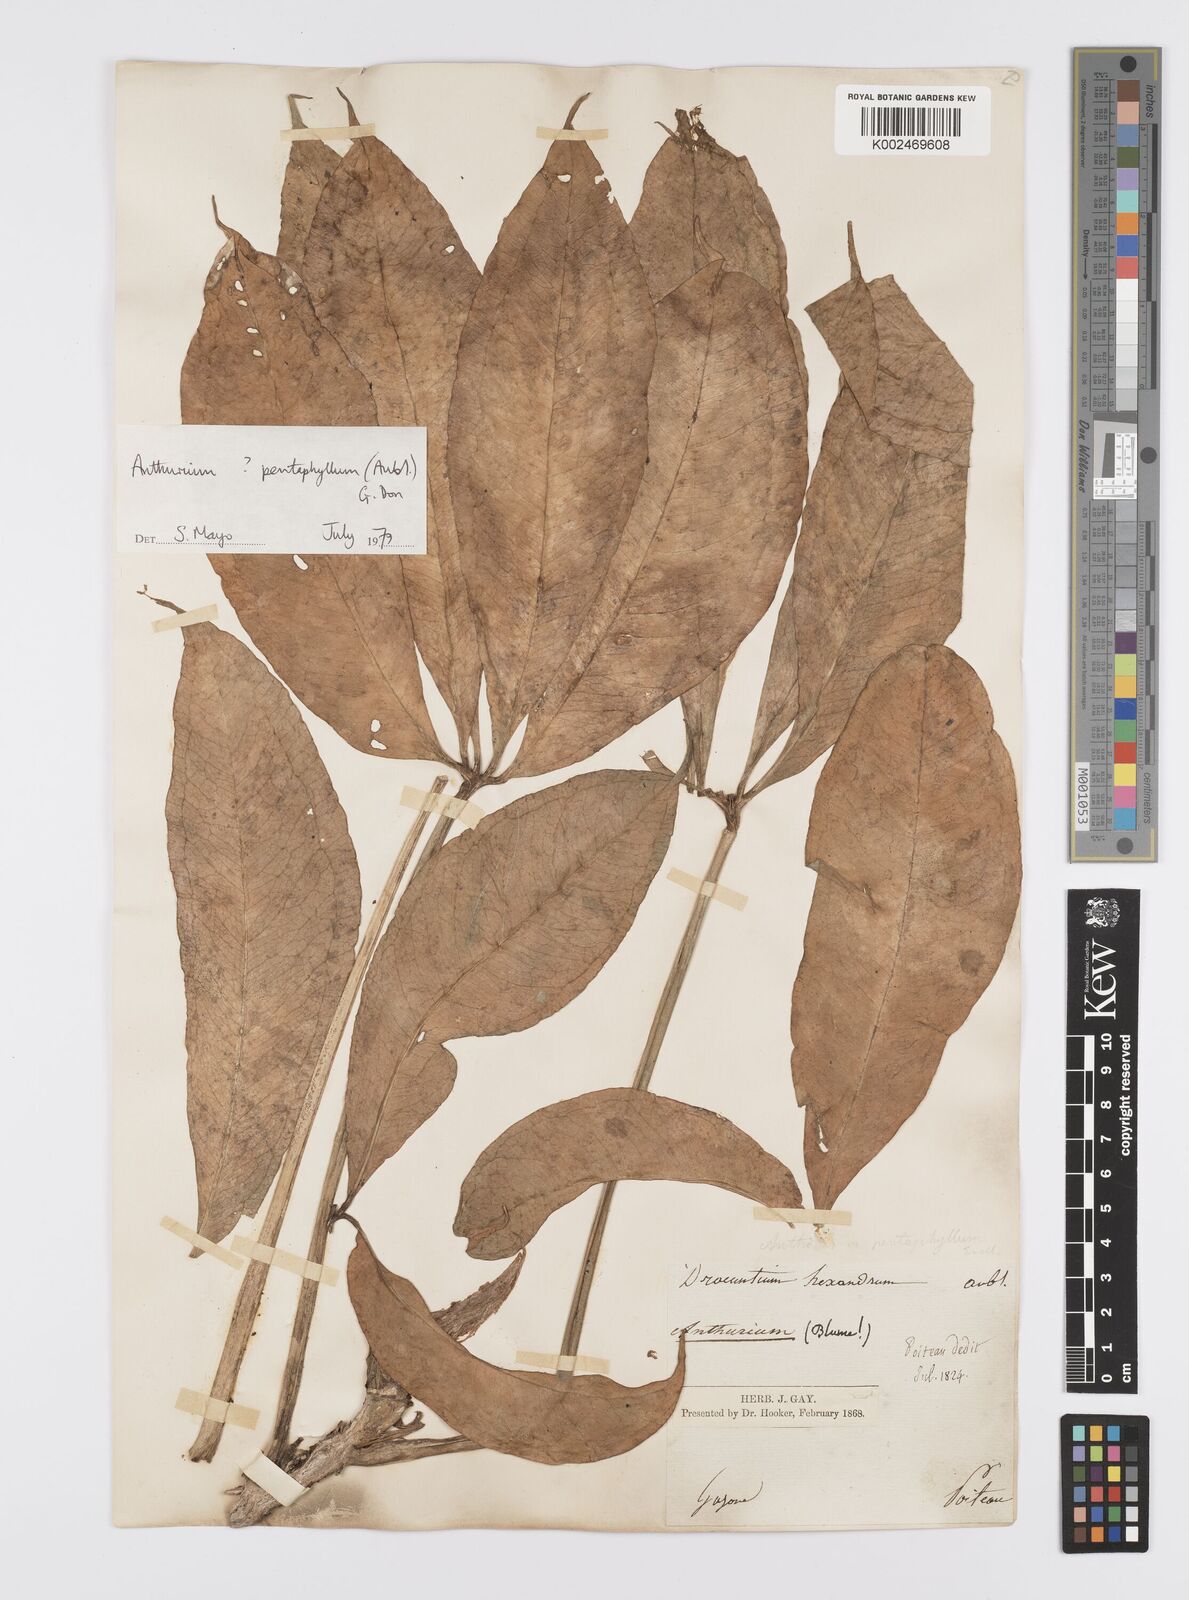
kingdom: Plantae
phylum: Tracheophyta
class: Liliopsida
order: Alismatales
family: Araceae
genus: Anthurium
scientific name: Anthurium pentaphyllum
